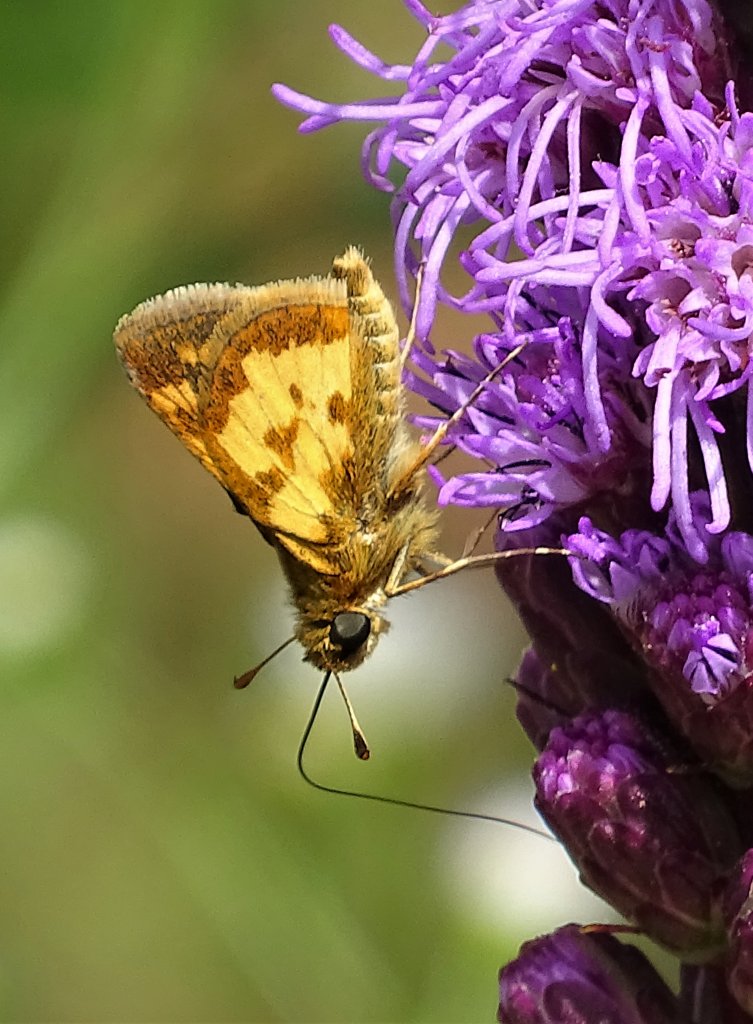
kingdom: Animalia
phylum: Arthropoda
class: Insecta
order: Lepidoptera
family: Hesperiidae
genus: Polites
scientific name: Polites coras
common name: Peck's Skipper
